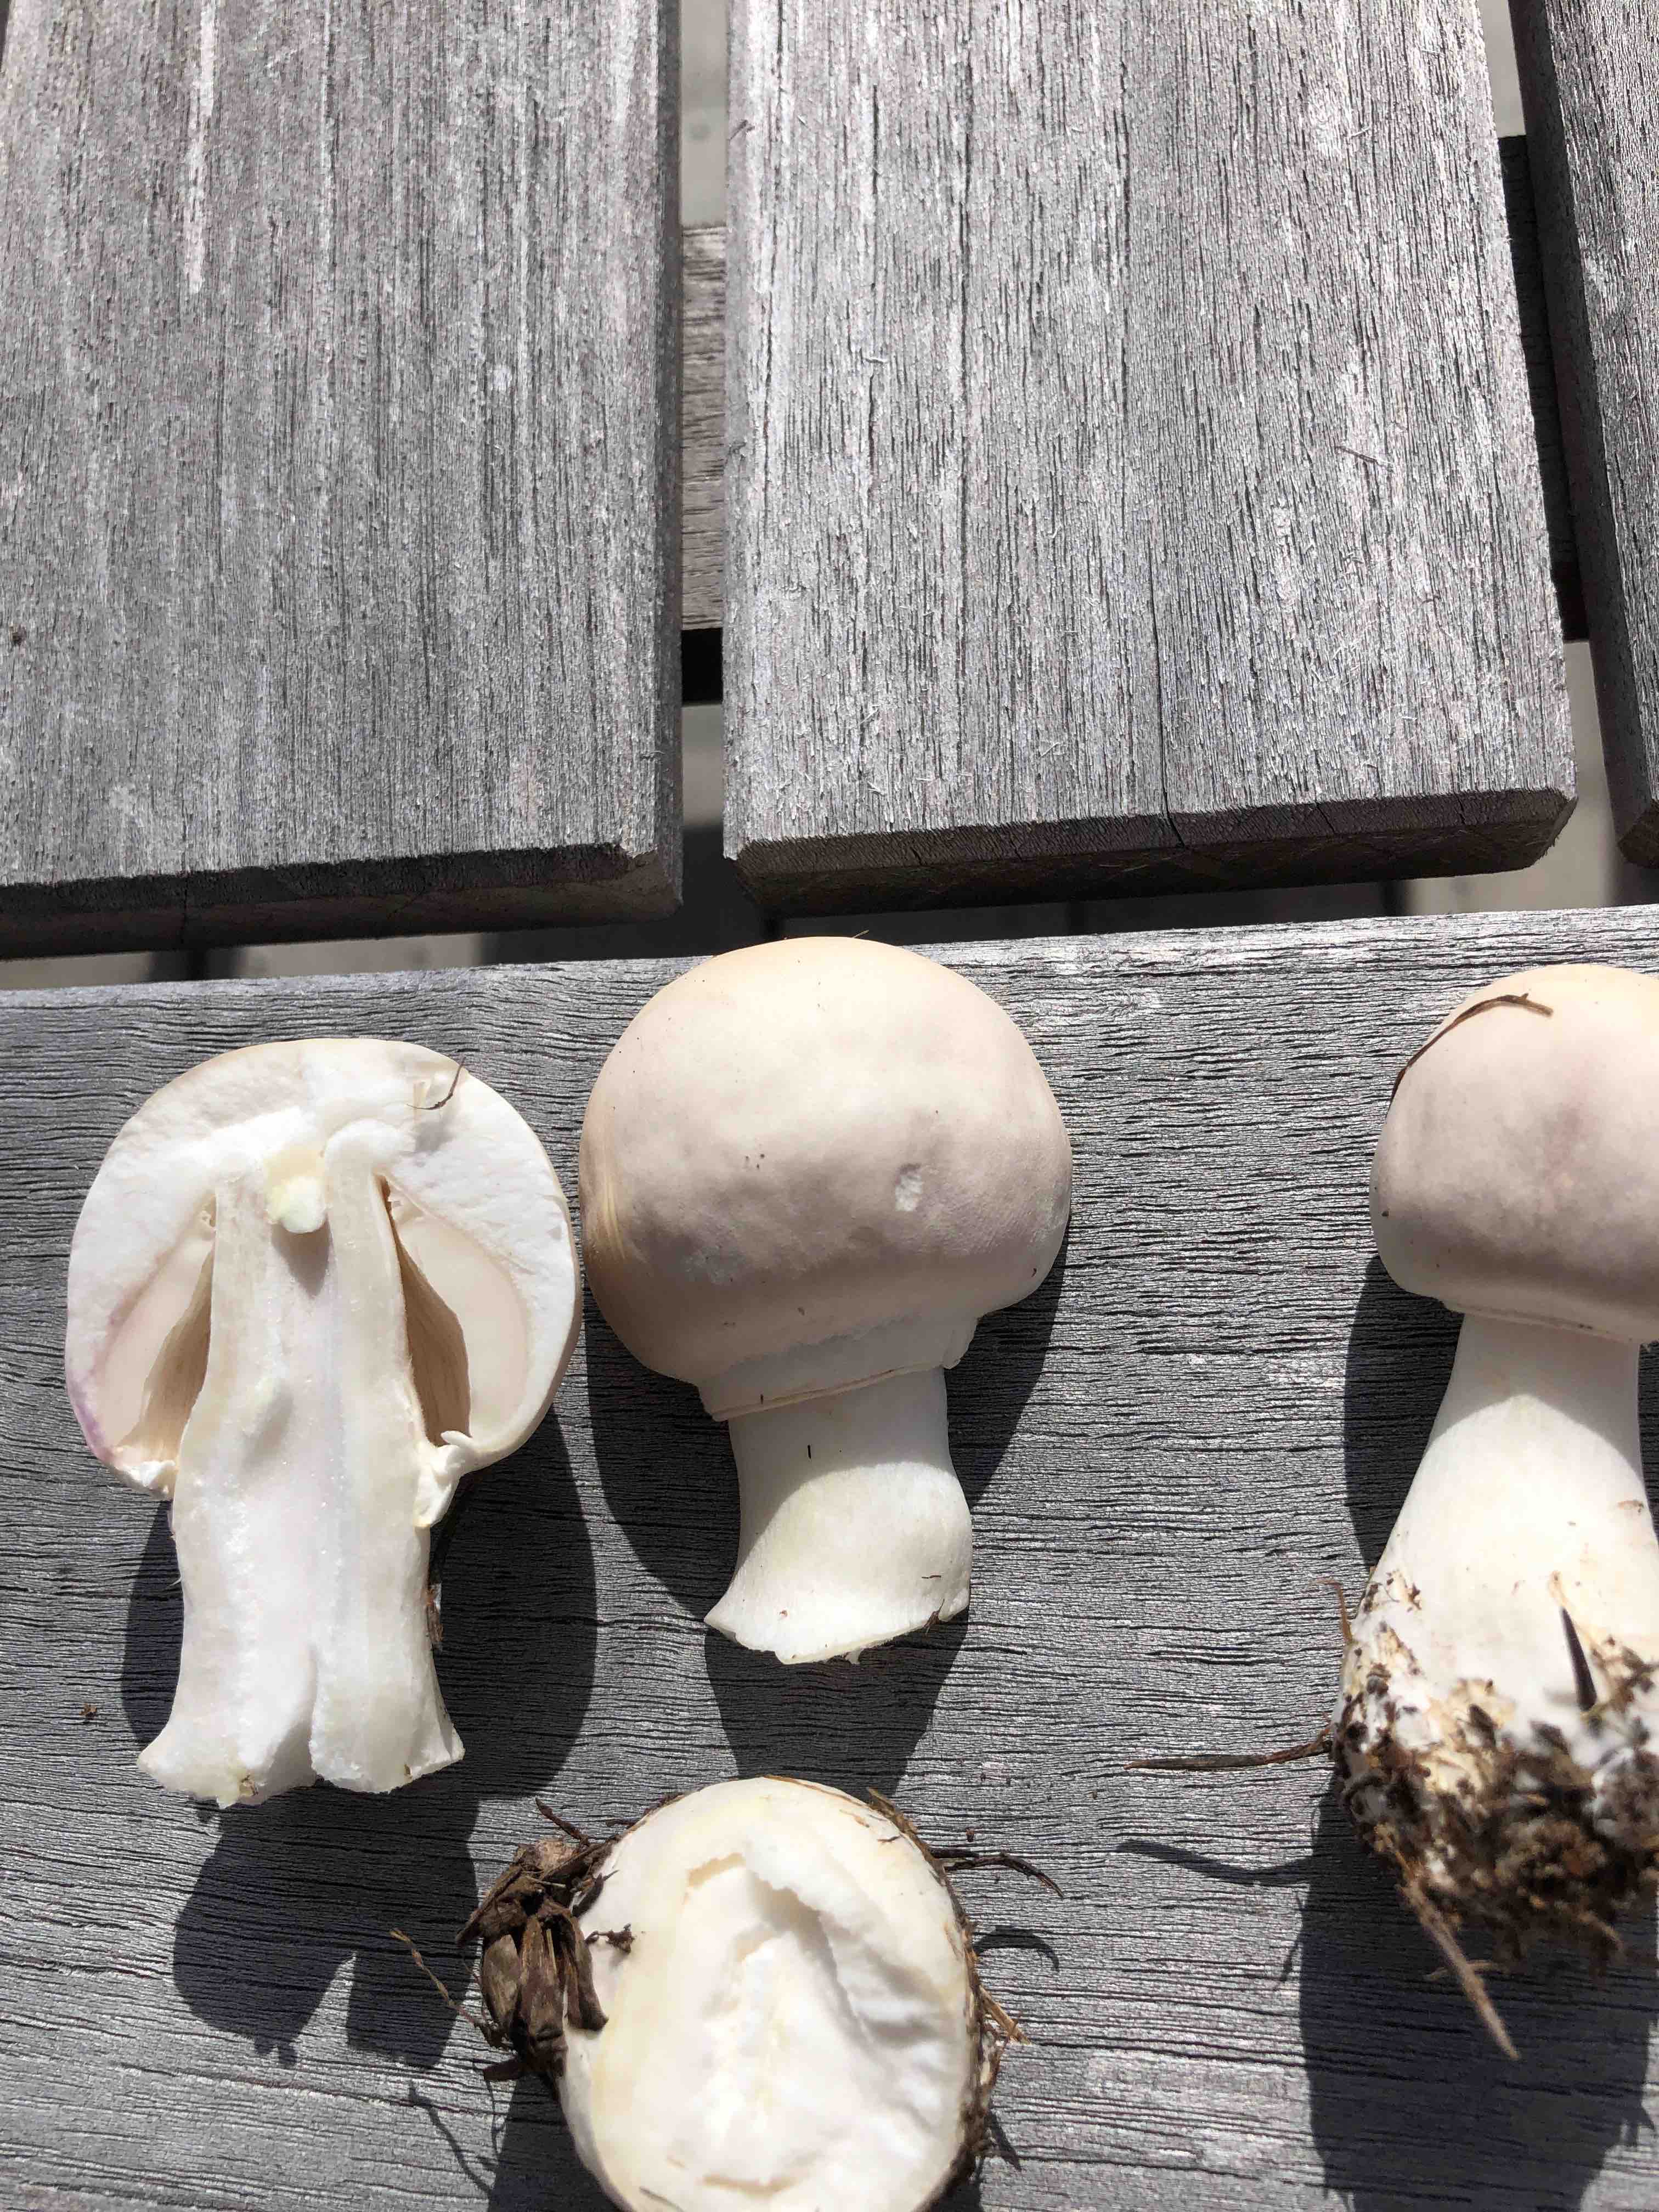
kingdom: Fungi
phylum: Basidiomycota
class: Agaricomycetes
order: Agaricales
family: Agaricaceae
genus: Leucoagaricus
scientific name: Leucoagaricus leucothites
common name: rosabladet silkehat
